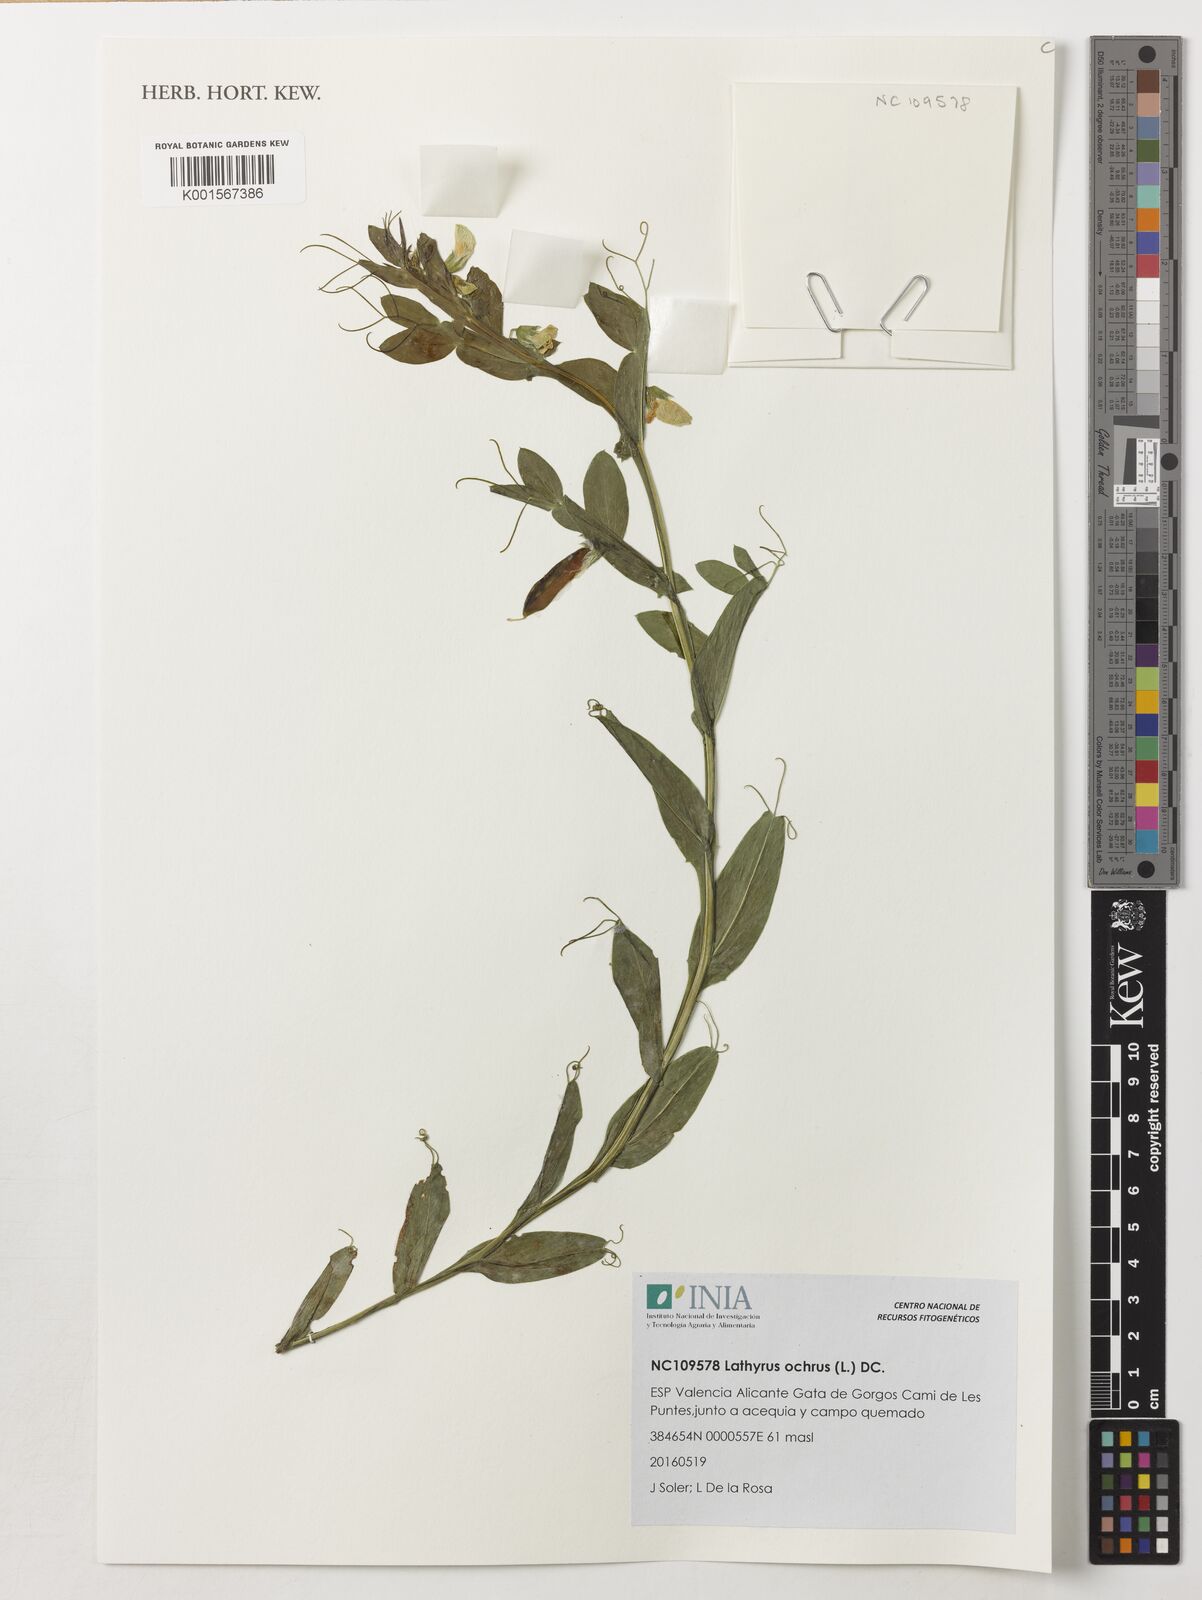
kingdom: Plantae
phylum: Tracheophyta
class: Magnoliopsida
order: Fabales
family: Fabaceae
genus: Lathyrus
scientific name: Lathyrus ochrus
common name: Winged vetchling
